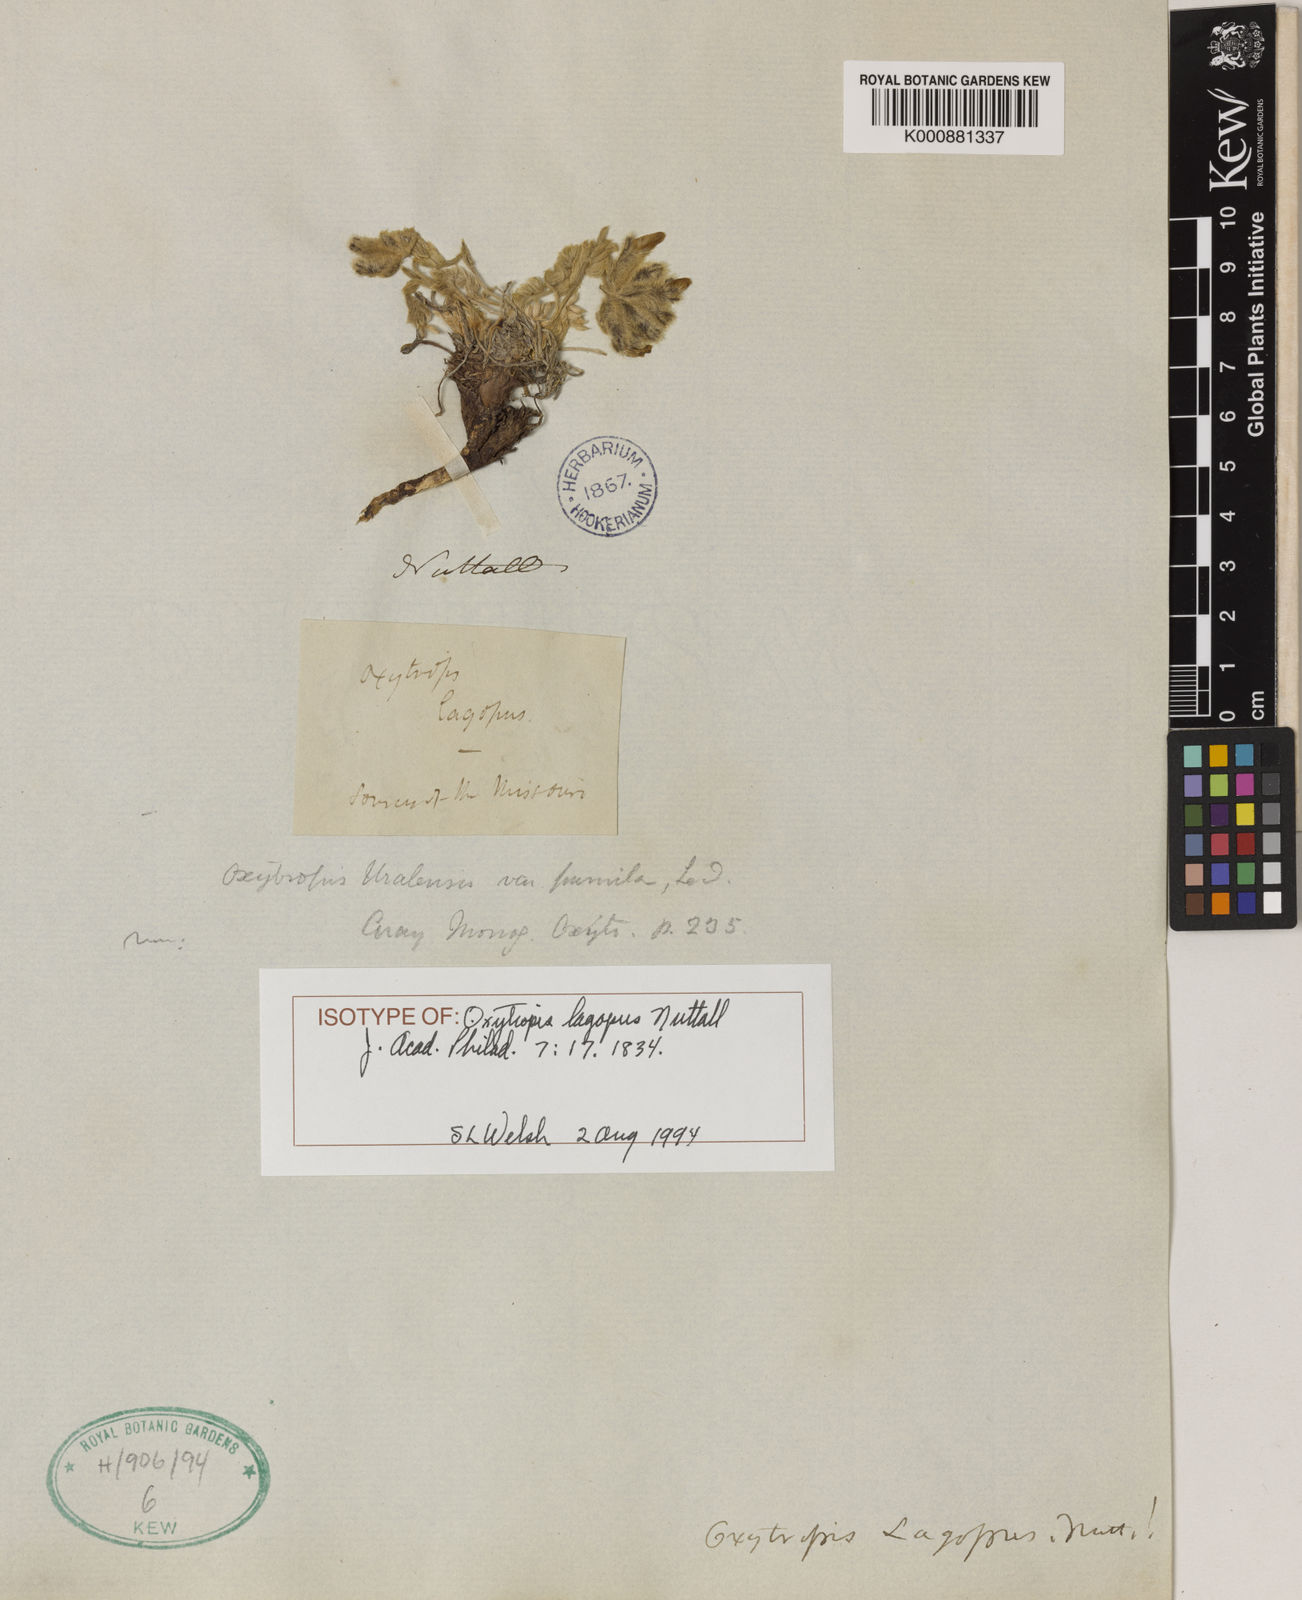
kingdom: Plantae
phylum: Tracheophyta
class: Magnoliopsida
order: Fabales
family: Fabaceae
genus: Oxytropis
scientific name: Oxytropis lagopus
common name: Hare's-foot locoweed
